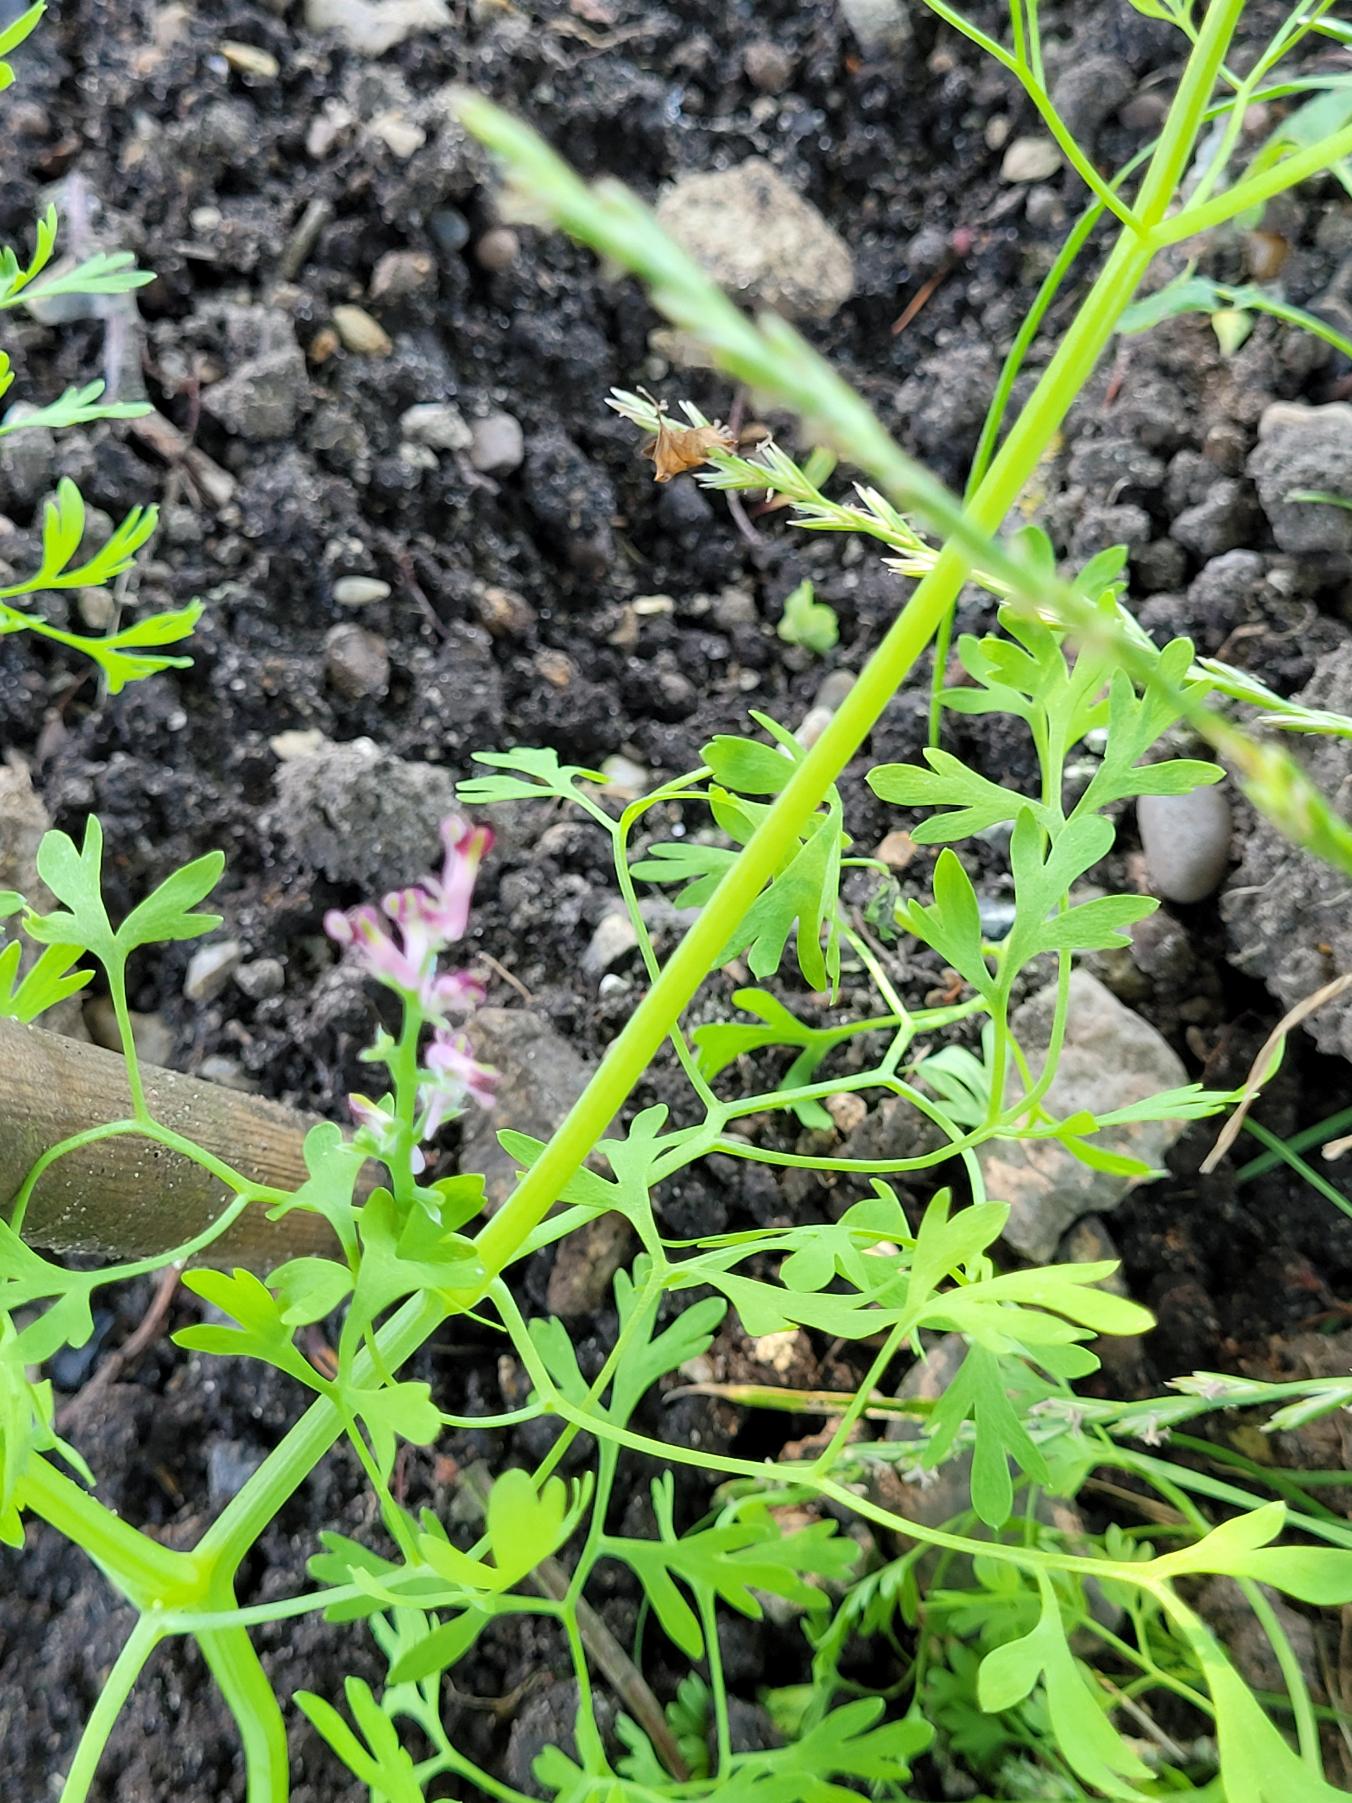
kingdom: Plantae
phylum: Tracheophyta
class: Magnoliopsida
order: Ranunculales
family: Papaveraceae
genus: Fumaria
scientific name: Fumaria officinalis
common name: Læge-jordrøg
